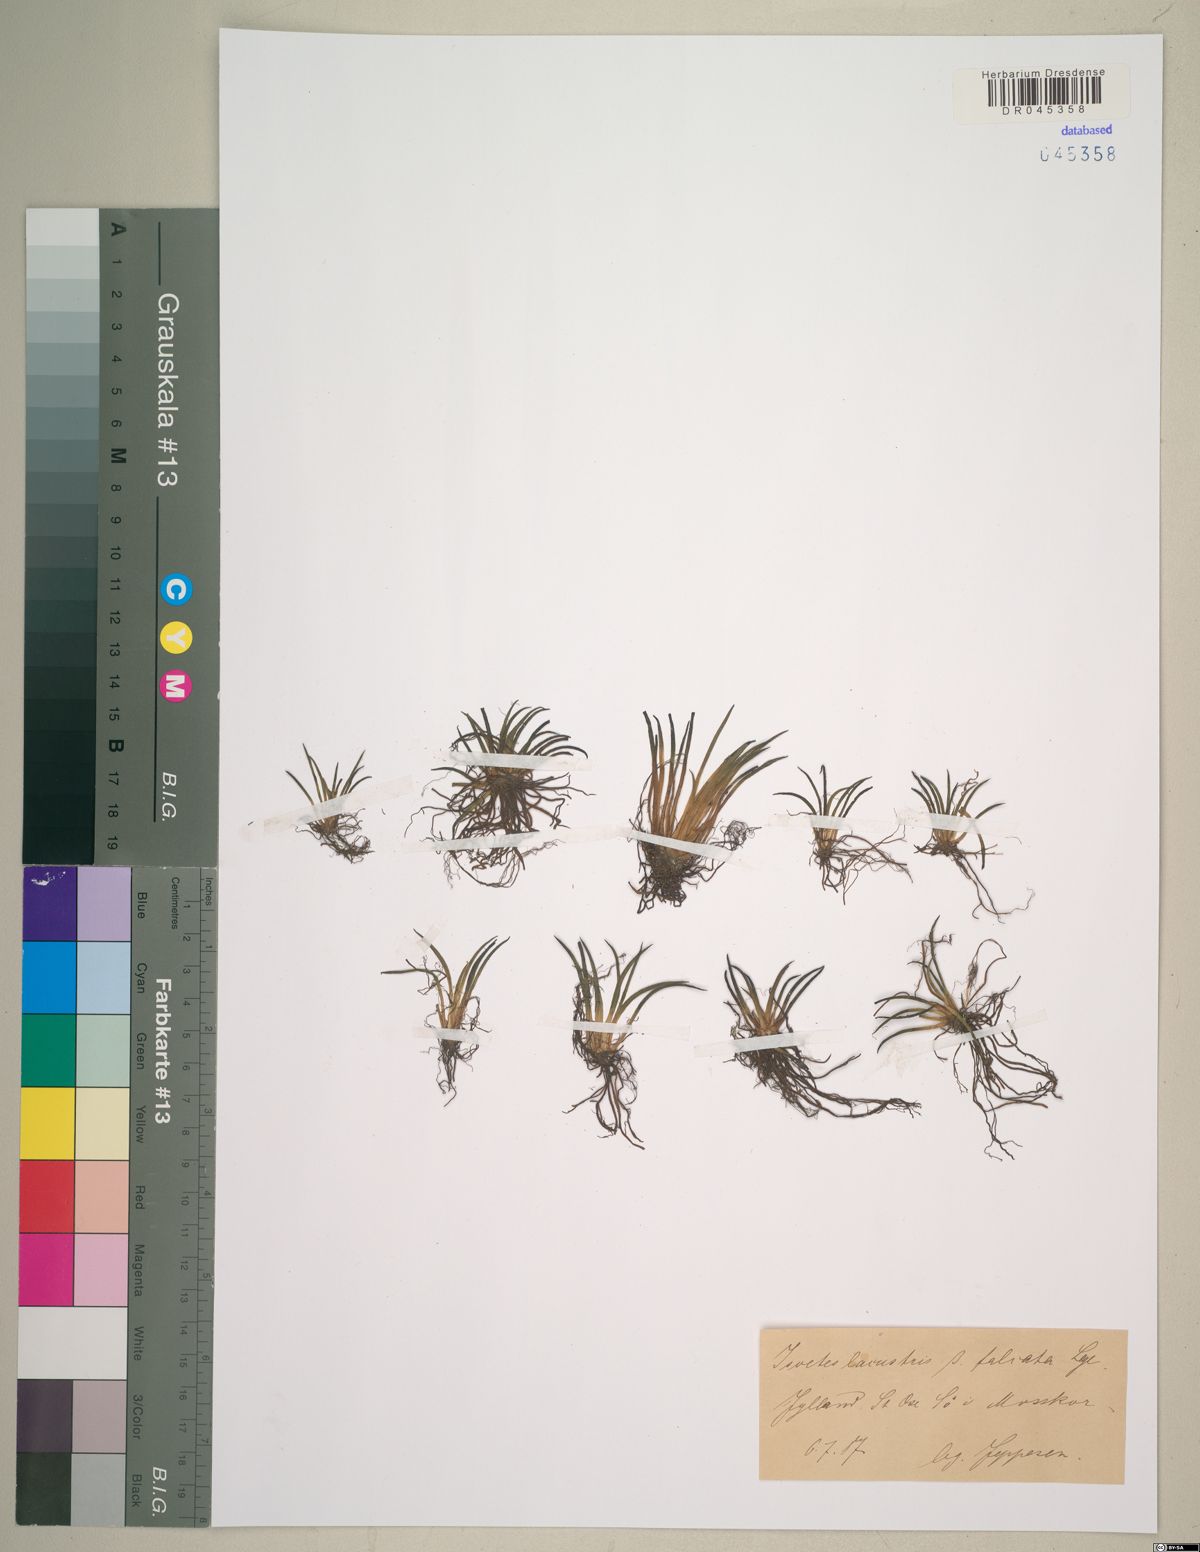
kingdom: Plantae
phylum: Tracheophyta
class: Lycopodiopsida
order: Isoetales
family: Isoetaceae
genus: Isoetes
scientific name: Isoetes lacustris
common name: Common quillwort
